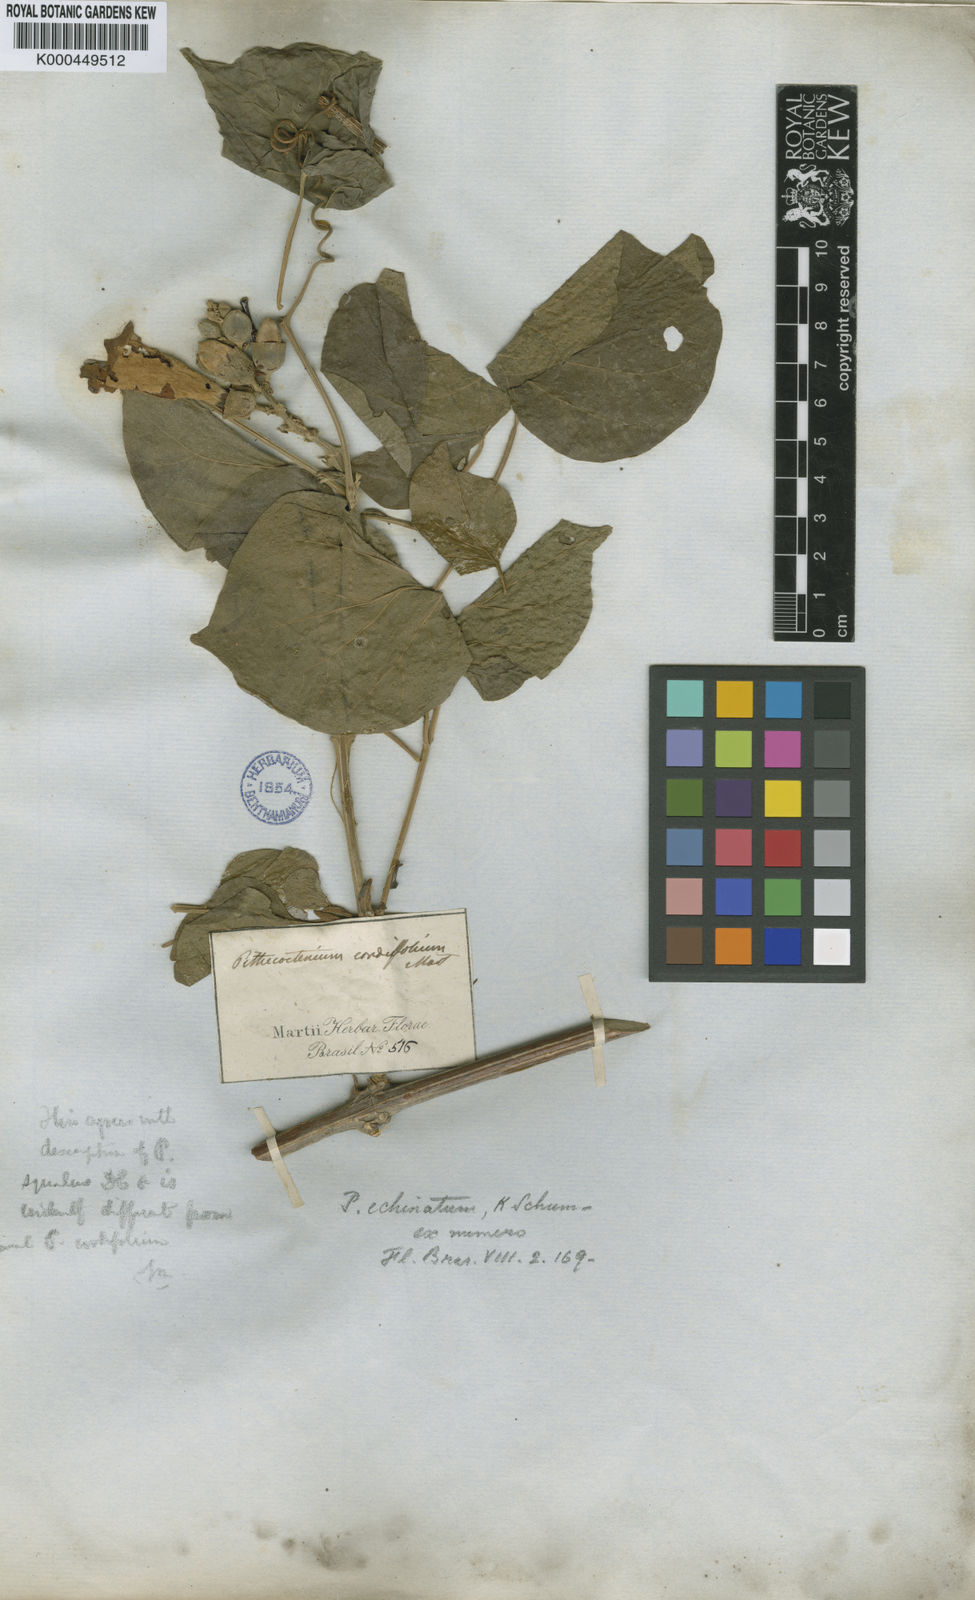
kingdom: Plantae
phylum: Tracheophyta
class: Magnoliopsida
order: Lamiales
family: Bignoniaceae
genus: Amphilophium
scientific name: Amphilophium crucigerum
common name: Monkey comb
